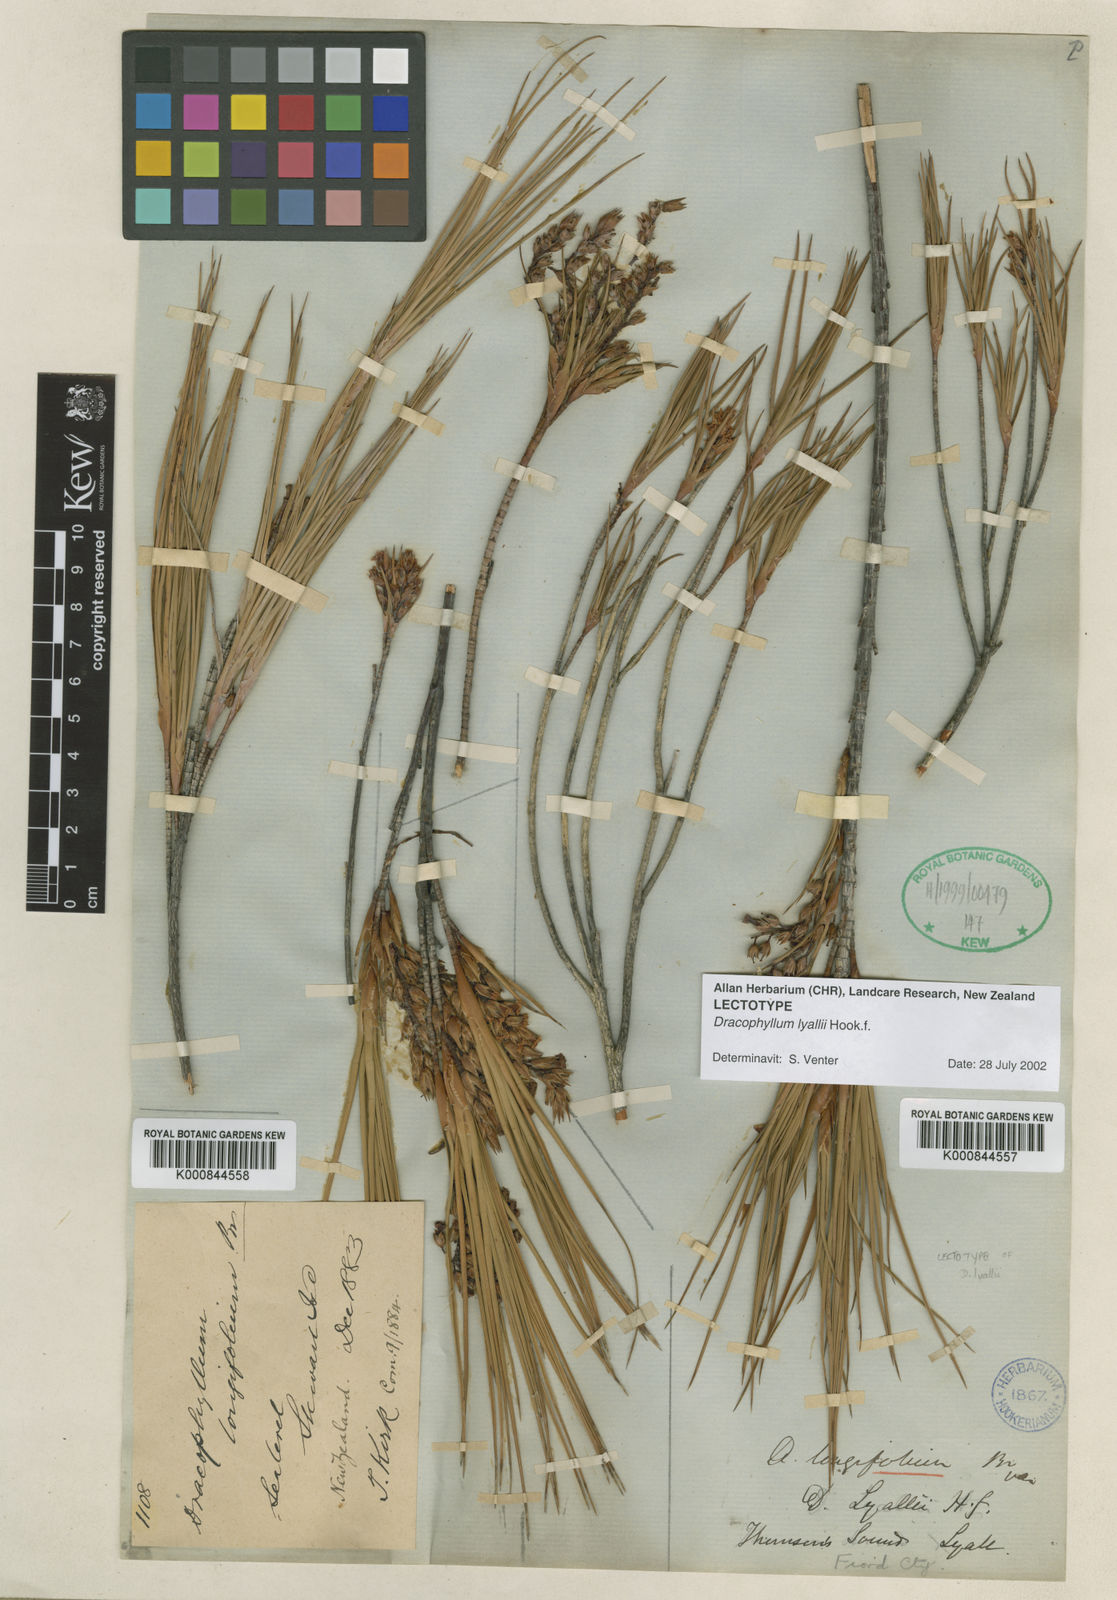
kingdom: Plantae
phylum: Tracheophyta
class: Magnoliopsida
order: Ericales
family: Ericaceae
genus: Dracophyllum
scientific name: Dracophyllum
